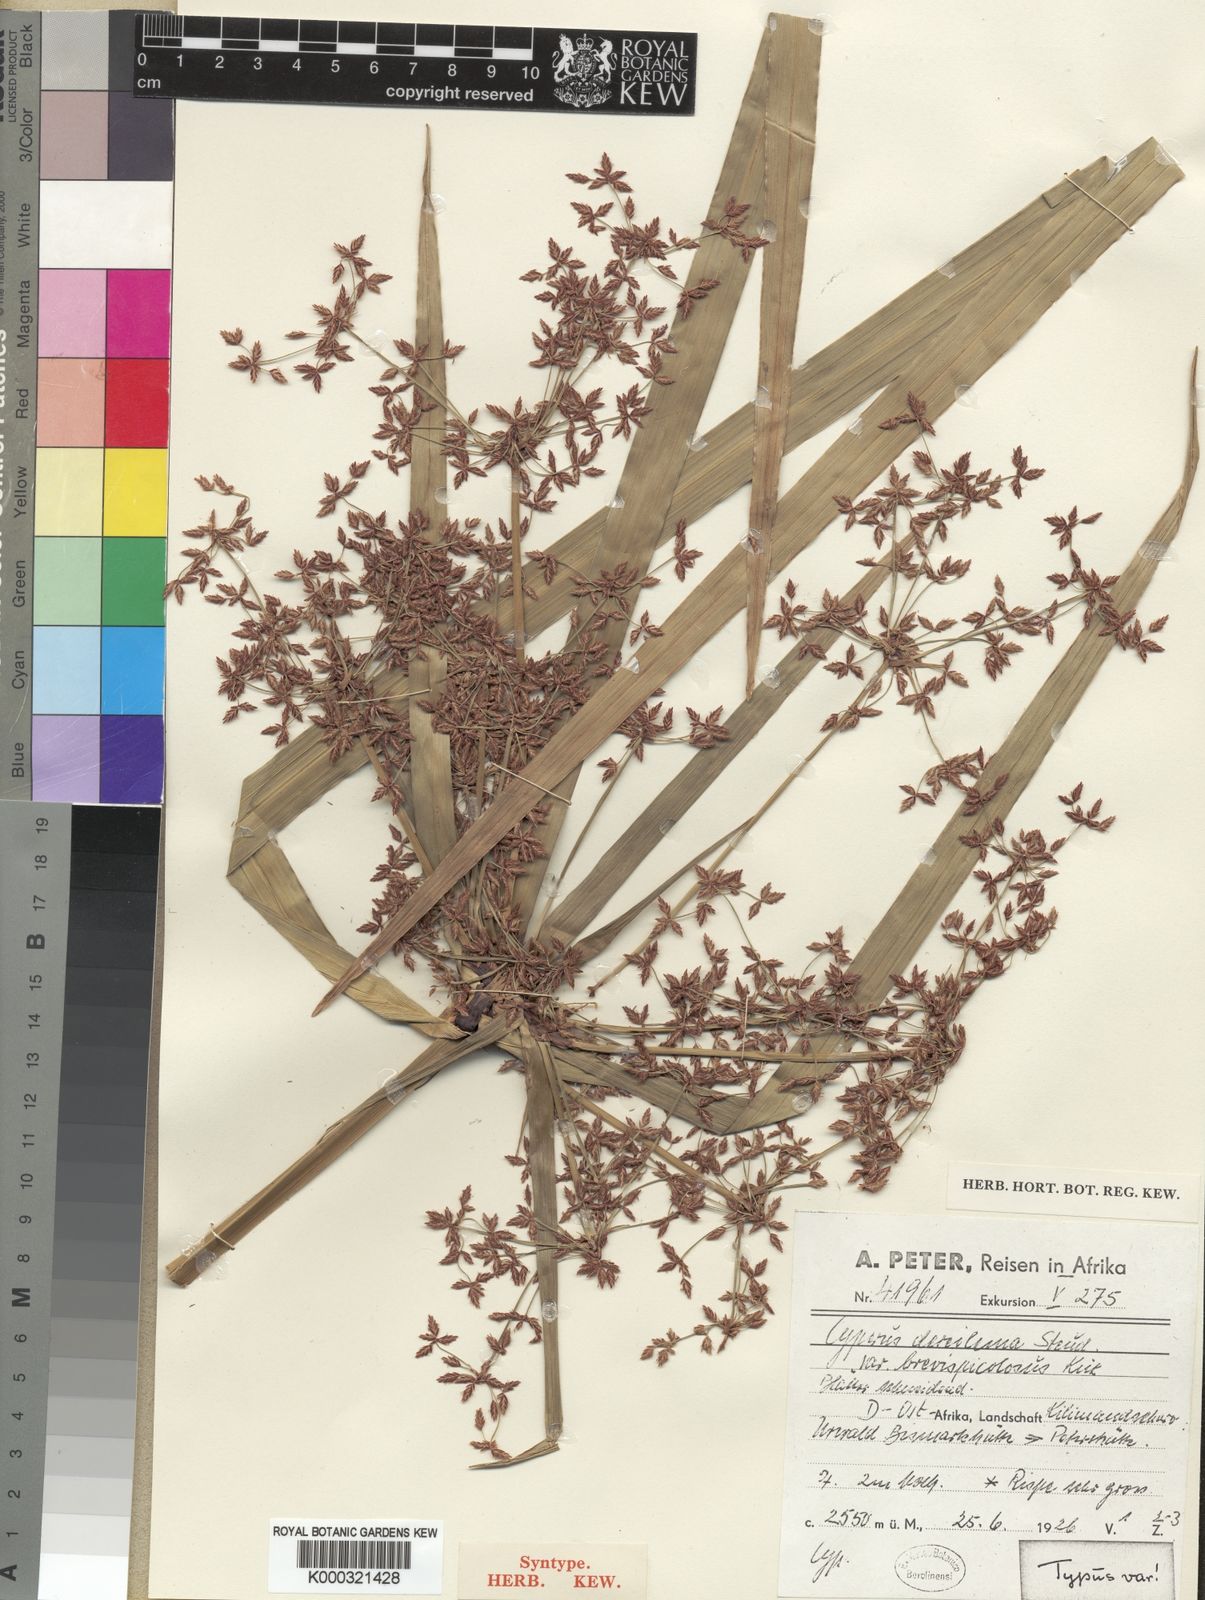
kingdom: Plantae
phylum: Tracheophyta
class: Liliopsida
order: Poales
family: Cyperaceae
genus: Cyperus
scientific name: Cyperus derreilema
